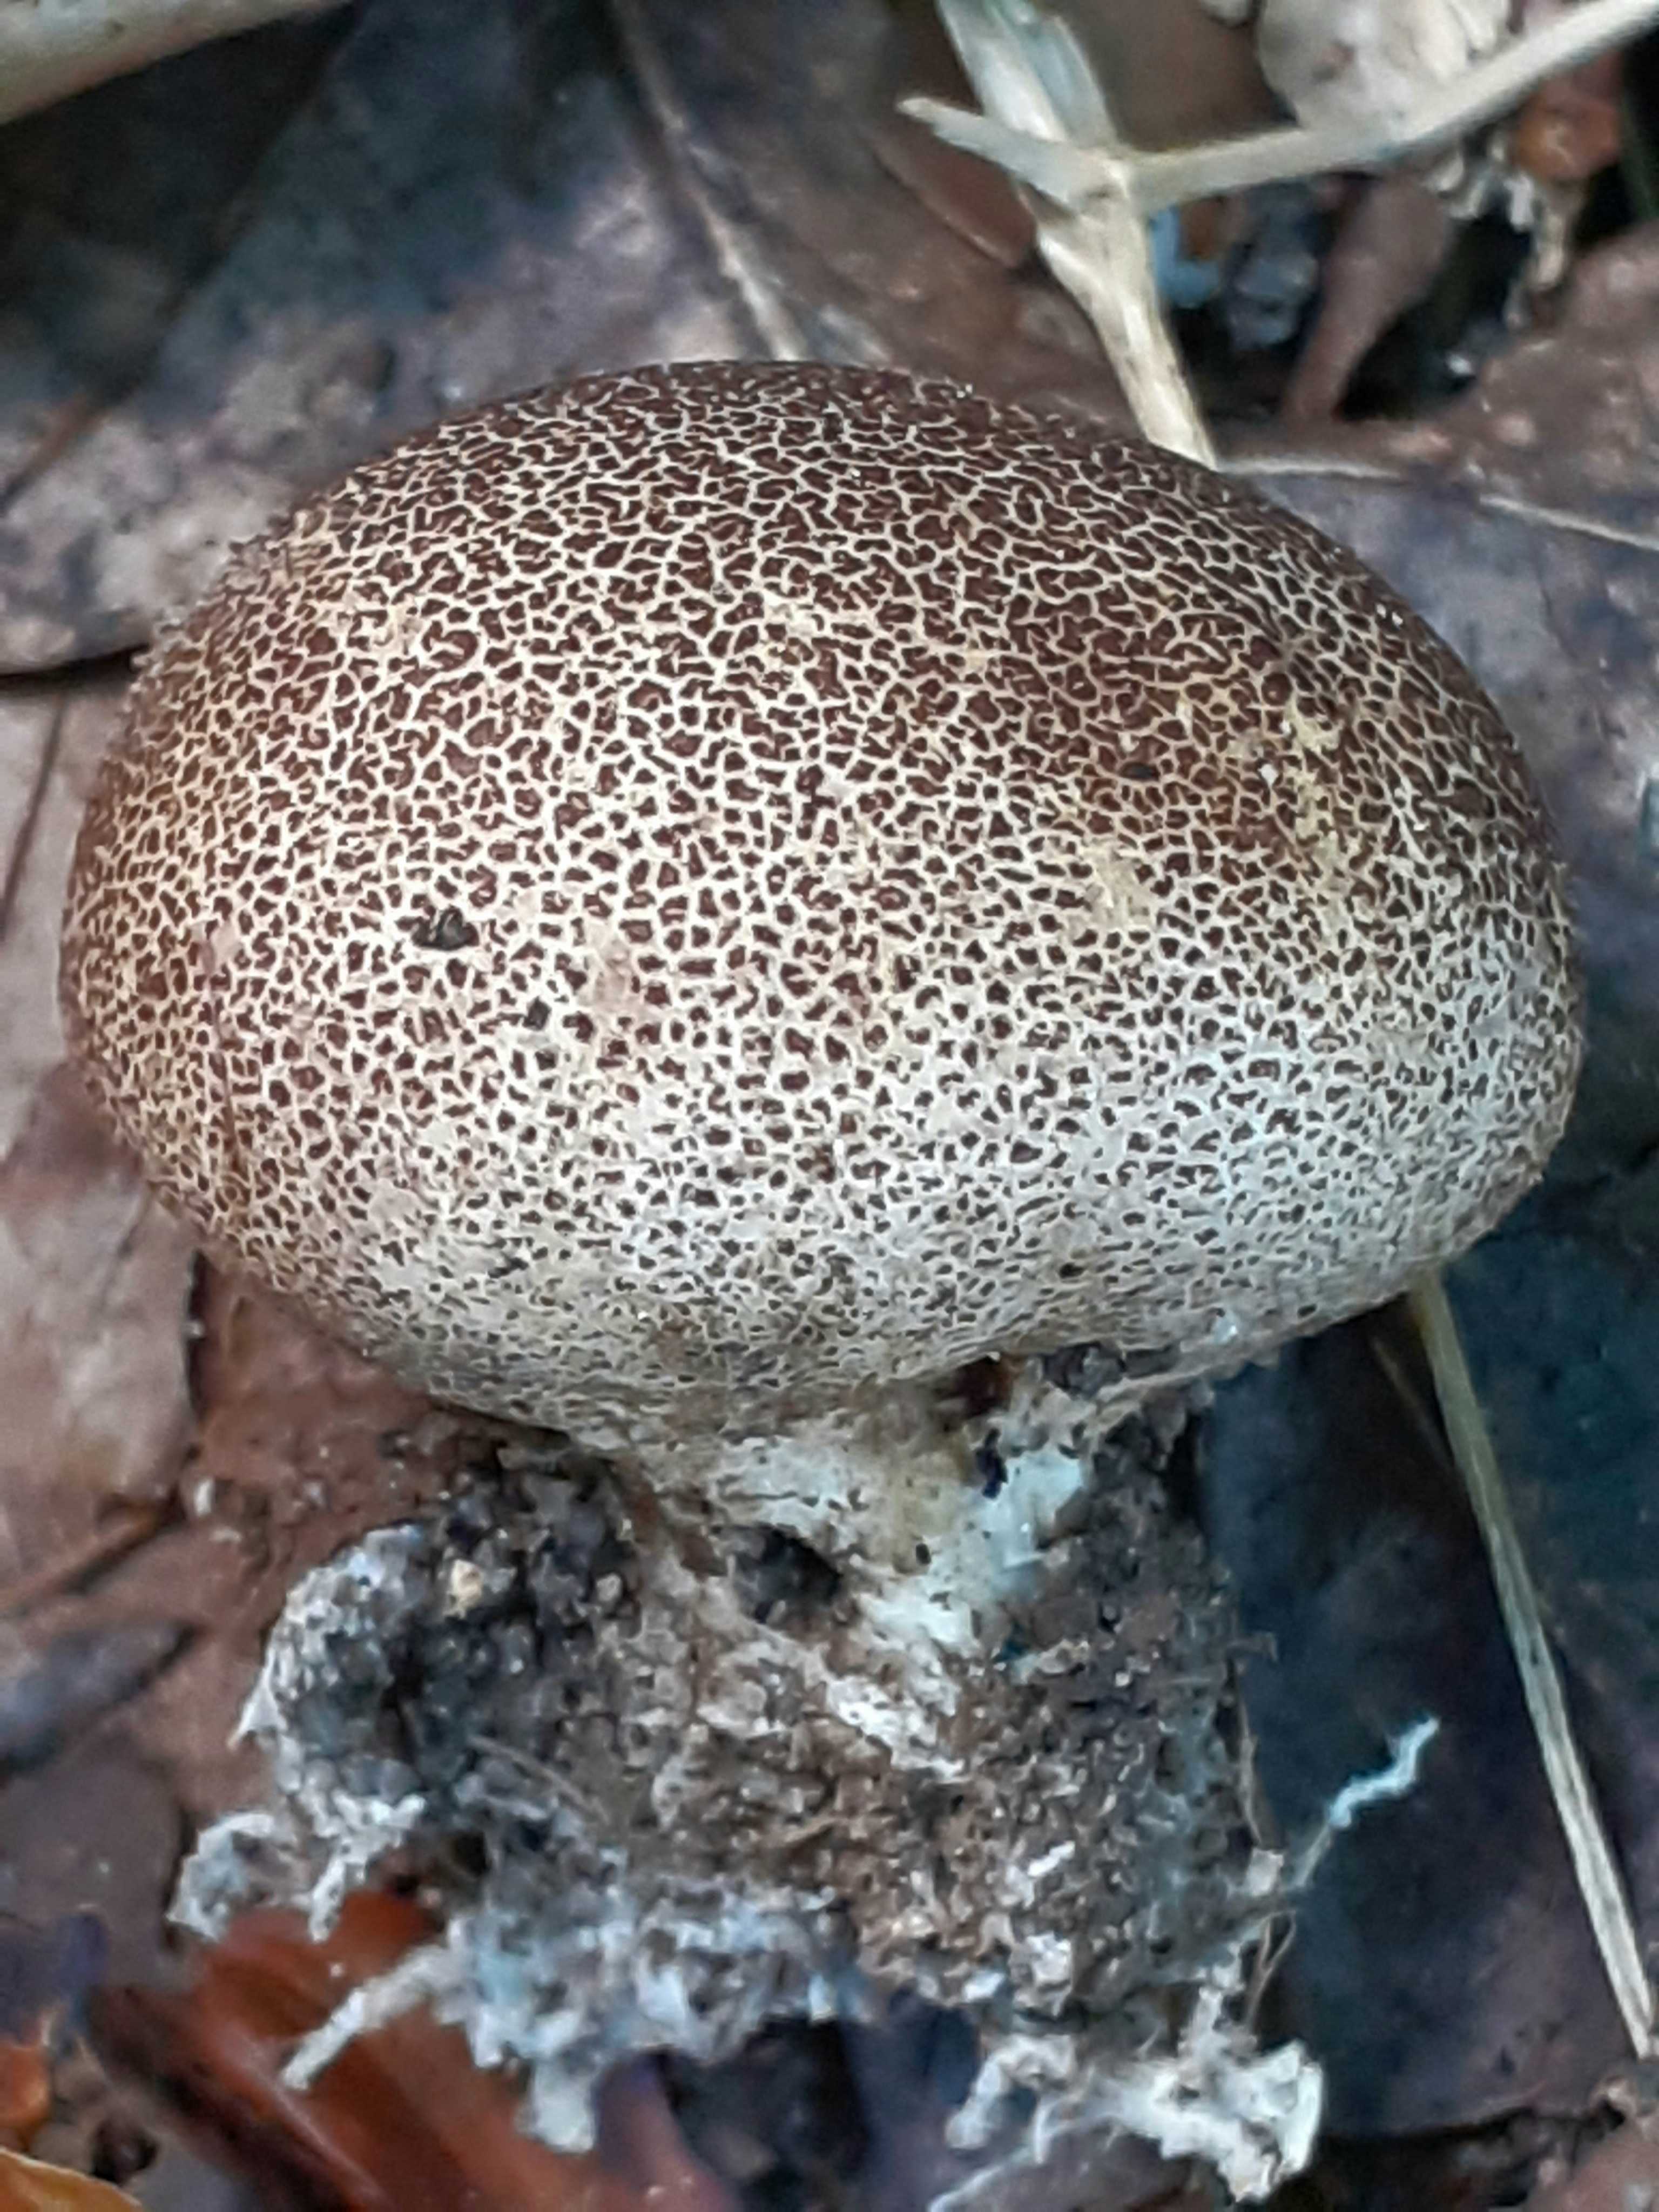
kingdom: Fungi
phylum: Basidiomycota
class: Agaricomycetes
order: Boletales
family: Sclerodermataceae
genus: Scleroderma
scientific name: Scleroderma areolatum
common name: plettet bruskbold
